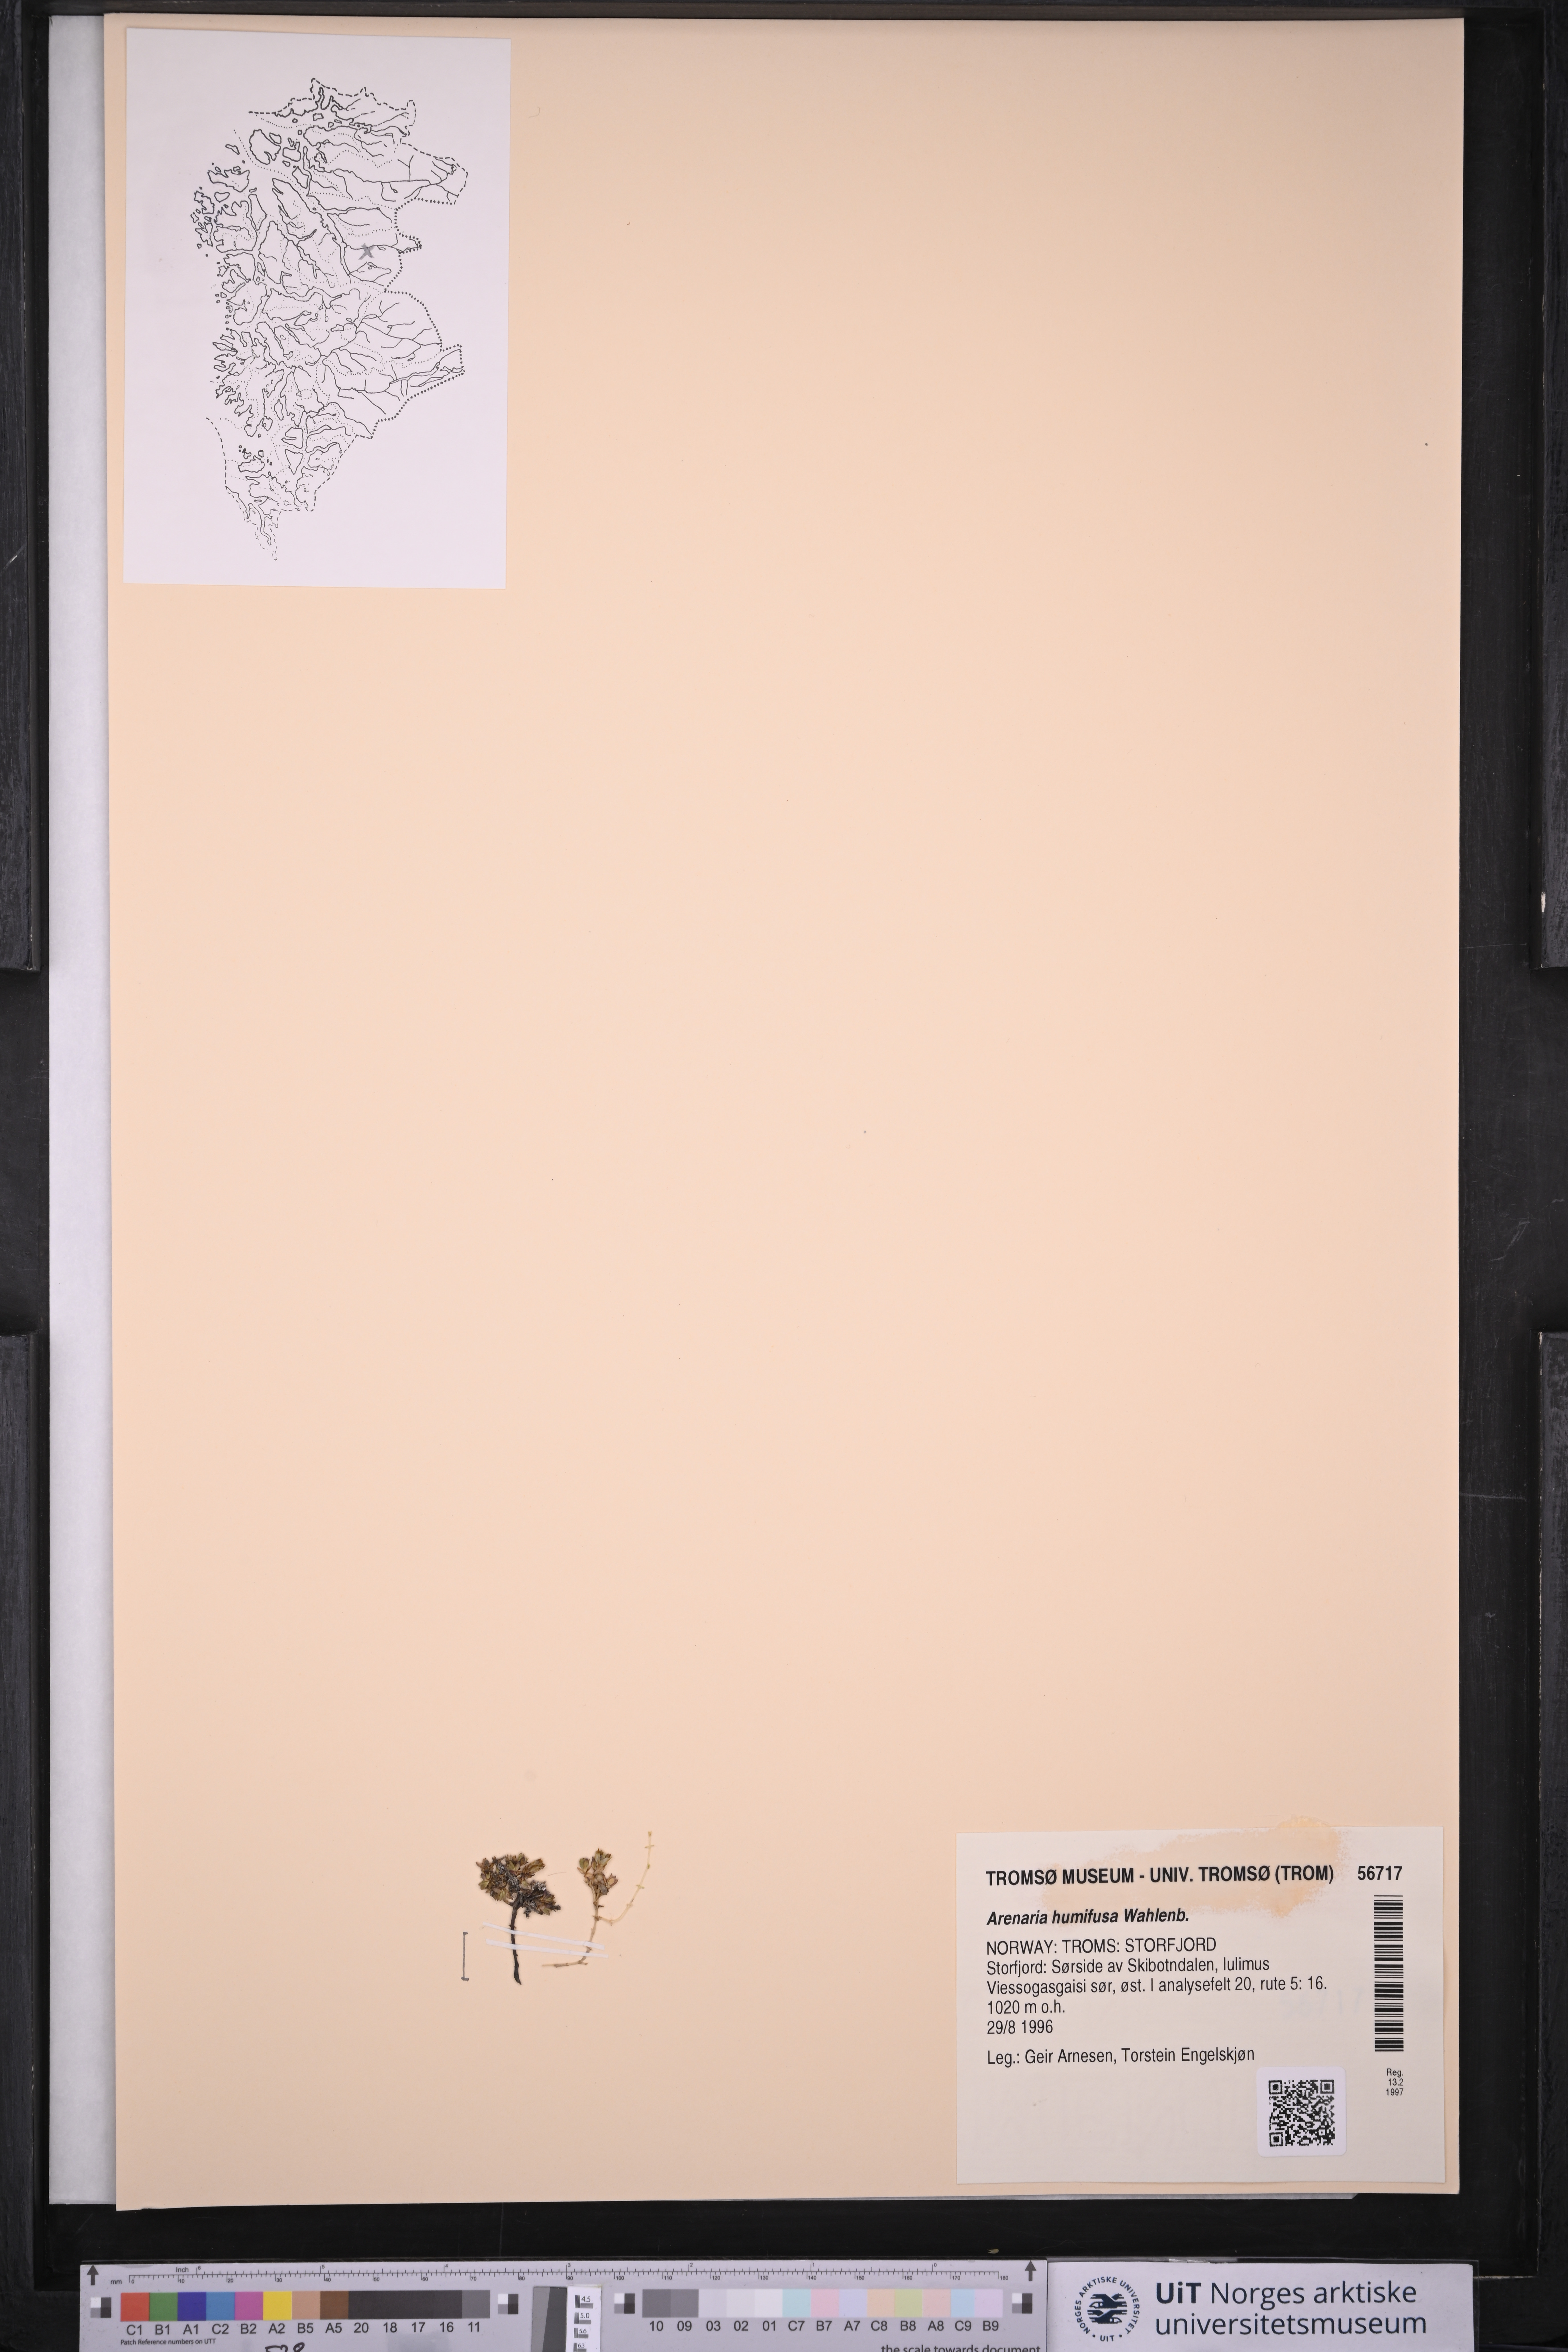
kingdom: Plantae
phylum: Tracheophyta
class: Magnoliopsida
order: Caryophyllales
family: Caryophyllaceae
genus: Arenaria
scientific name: Arenaria humifusa
